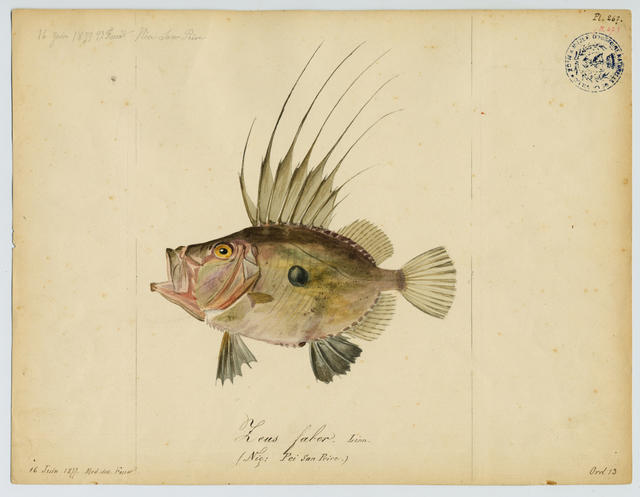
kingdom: Animalia
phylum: Chordata
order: Zeiformes
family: Zeidae
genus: Zeus
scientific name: Zeus faber
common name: John dory
